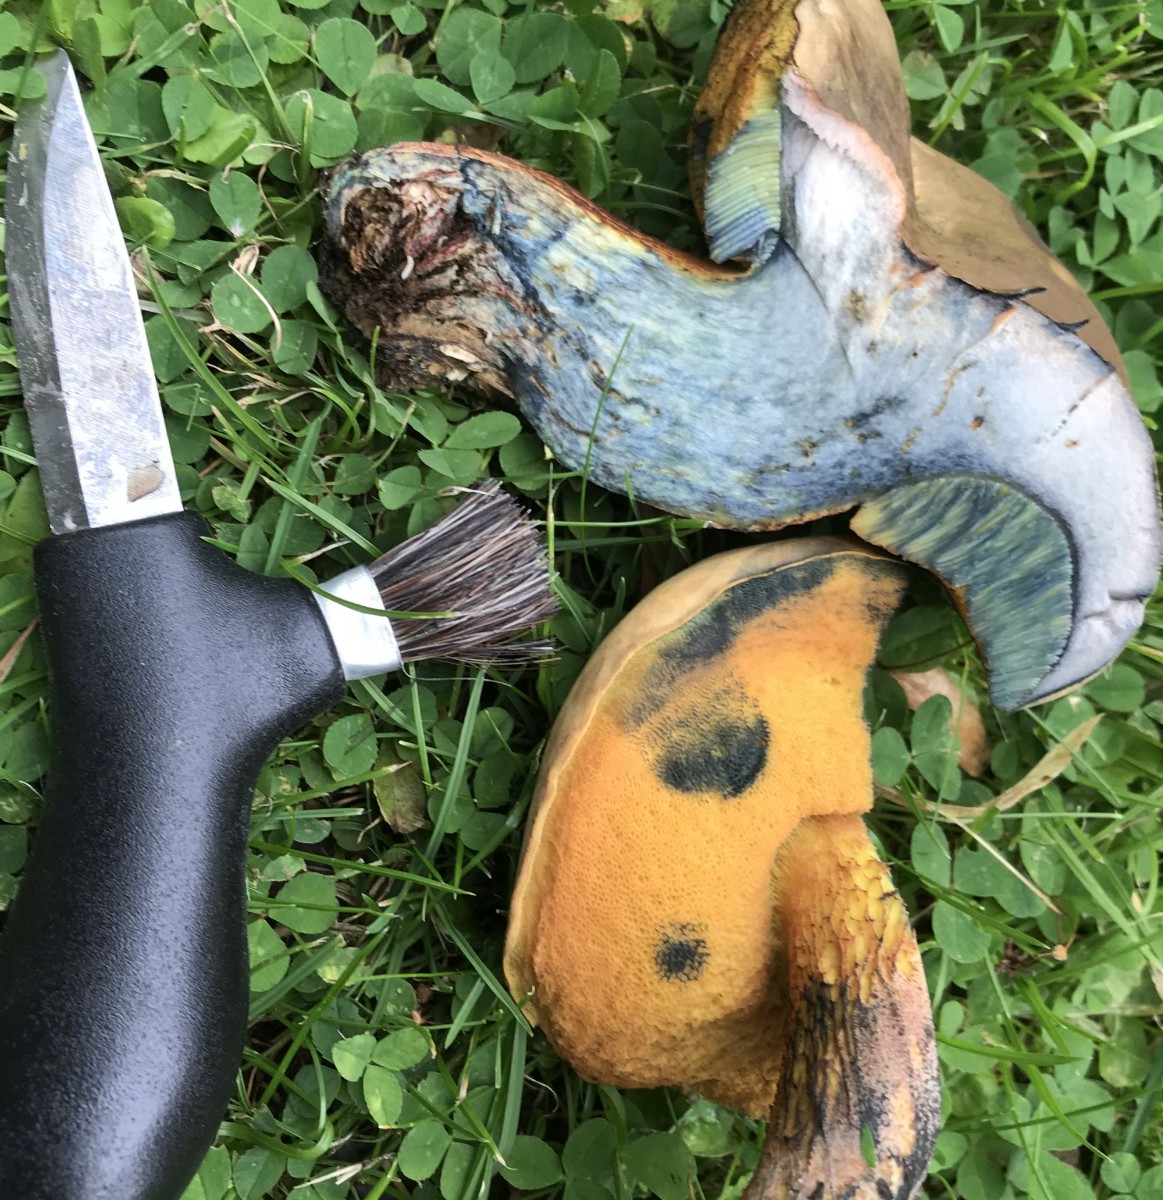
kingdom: Fungi
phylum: Basidiomycota
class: Agaricomycetes
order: Boletales
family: Boletaceae
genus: Suillellus
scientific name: Suillellus luridus
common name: netstokket indigorørhat
